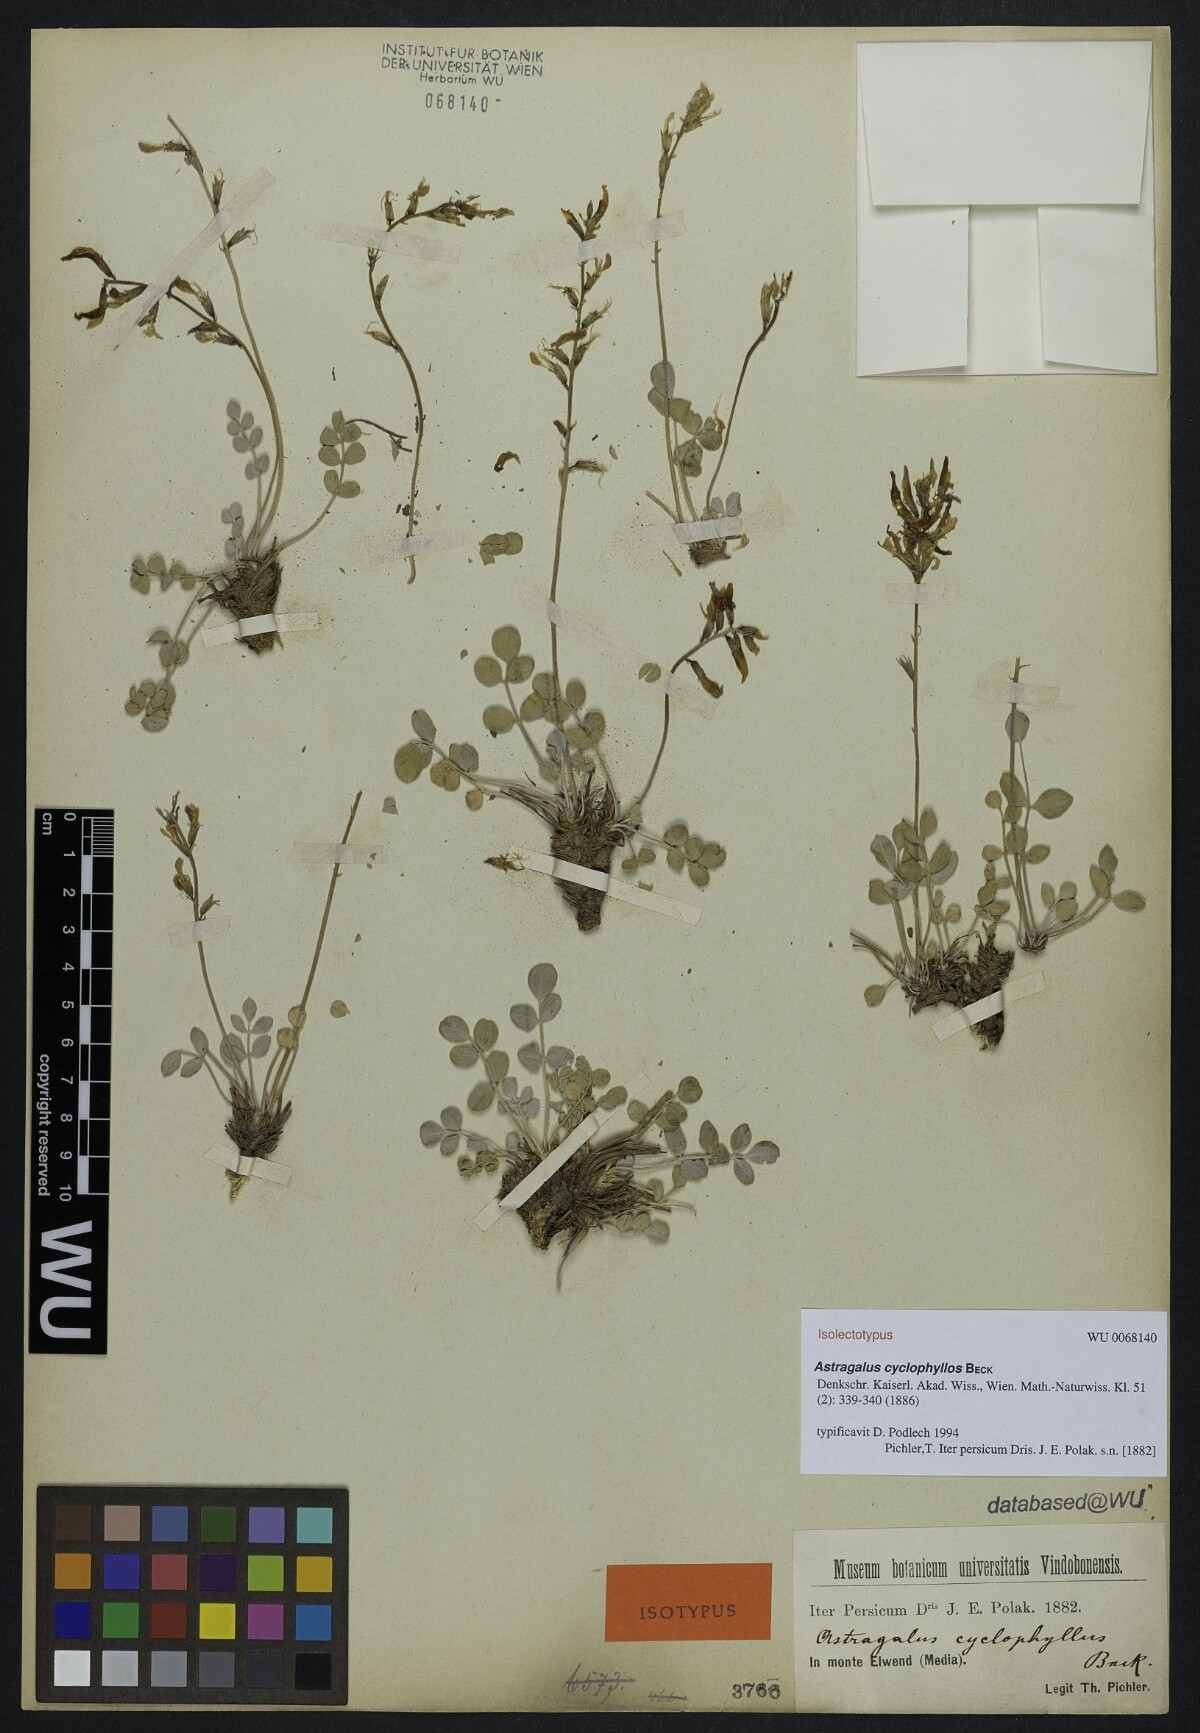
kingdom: Plantae
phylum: Tracheophyta
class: Magnoliopsida
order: Fabales
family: Fabaceae
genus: Astragalus
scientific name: Astragalus cyclophyllos
